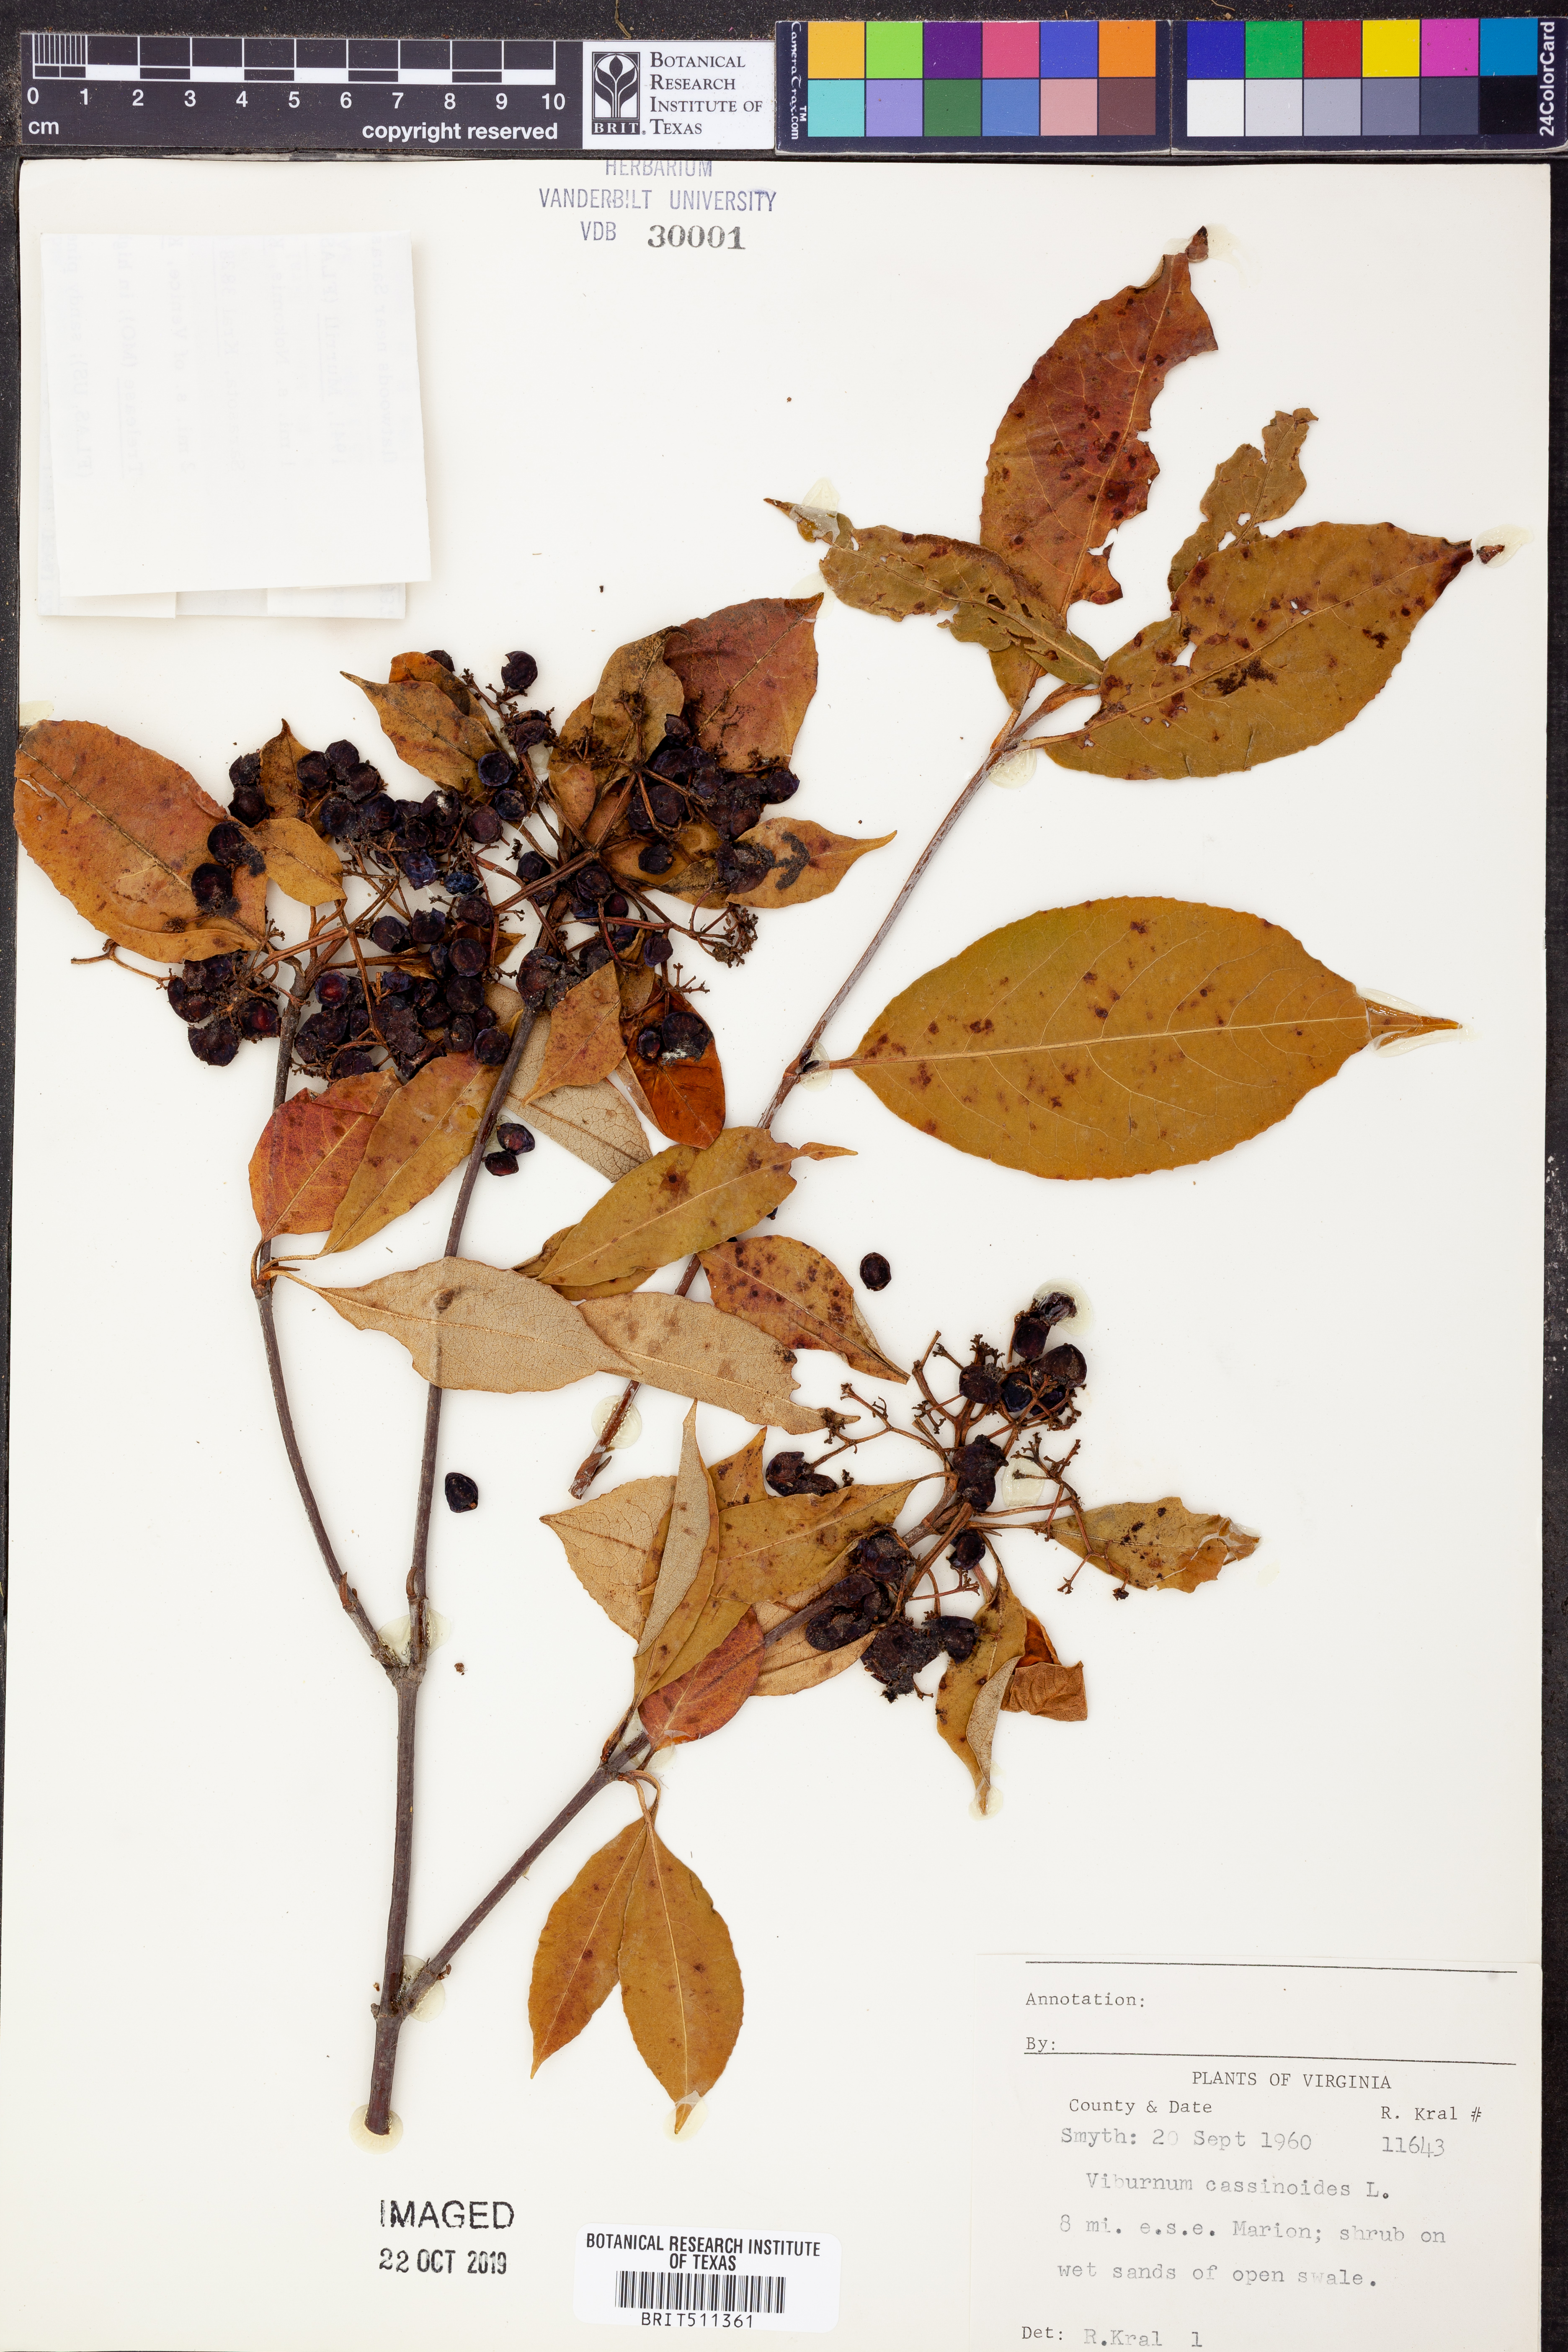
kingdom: Plantae
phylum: Tracheophyta
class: Magnoliopsida
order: Dipsacales
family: Viburnaceae
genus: Viburnum
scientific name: Viburnum cassinoides
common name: Swamp haw
